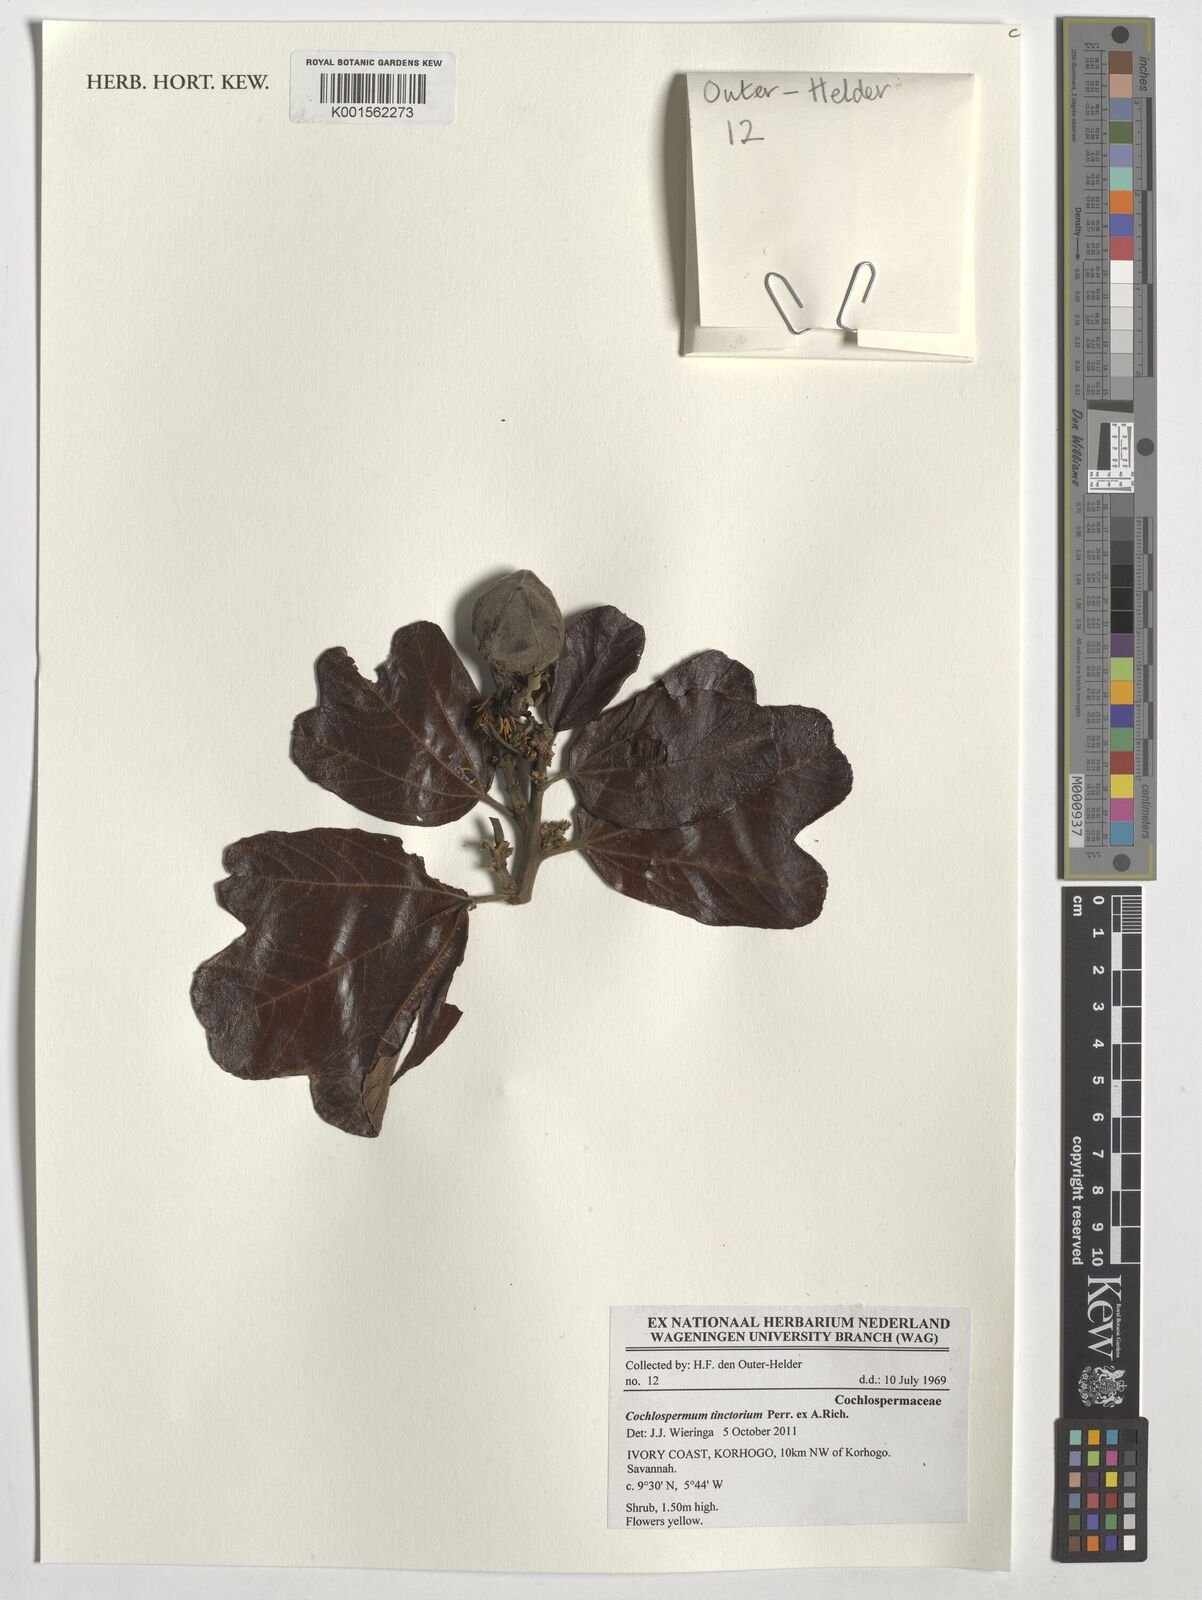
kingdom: Plantae
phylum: Tracheophyta
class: Magnoliopsida
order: Malvales
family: Cochlospermaceae
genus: Cochlospermum
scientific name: Cochlospermum tinctorium
